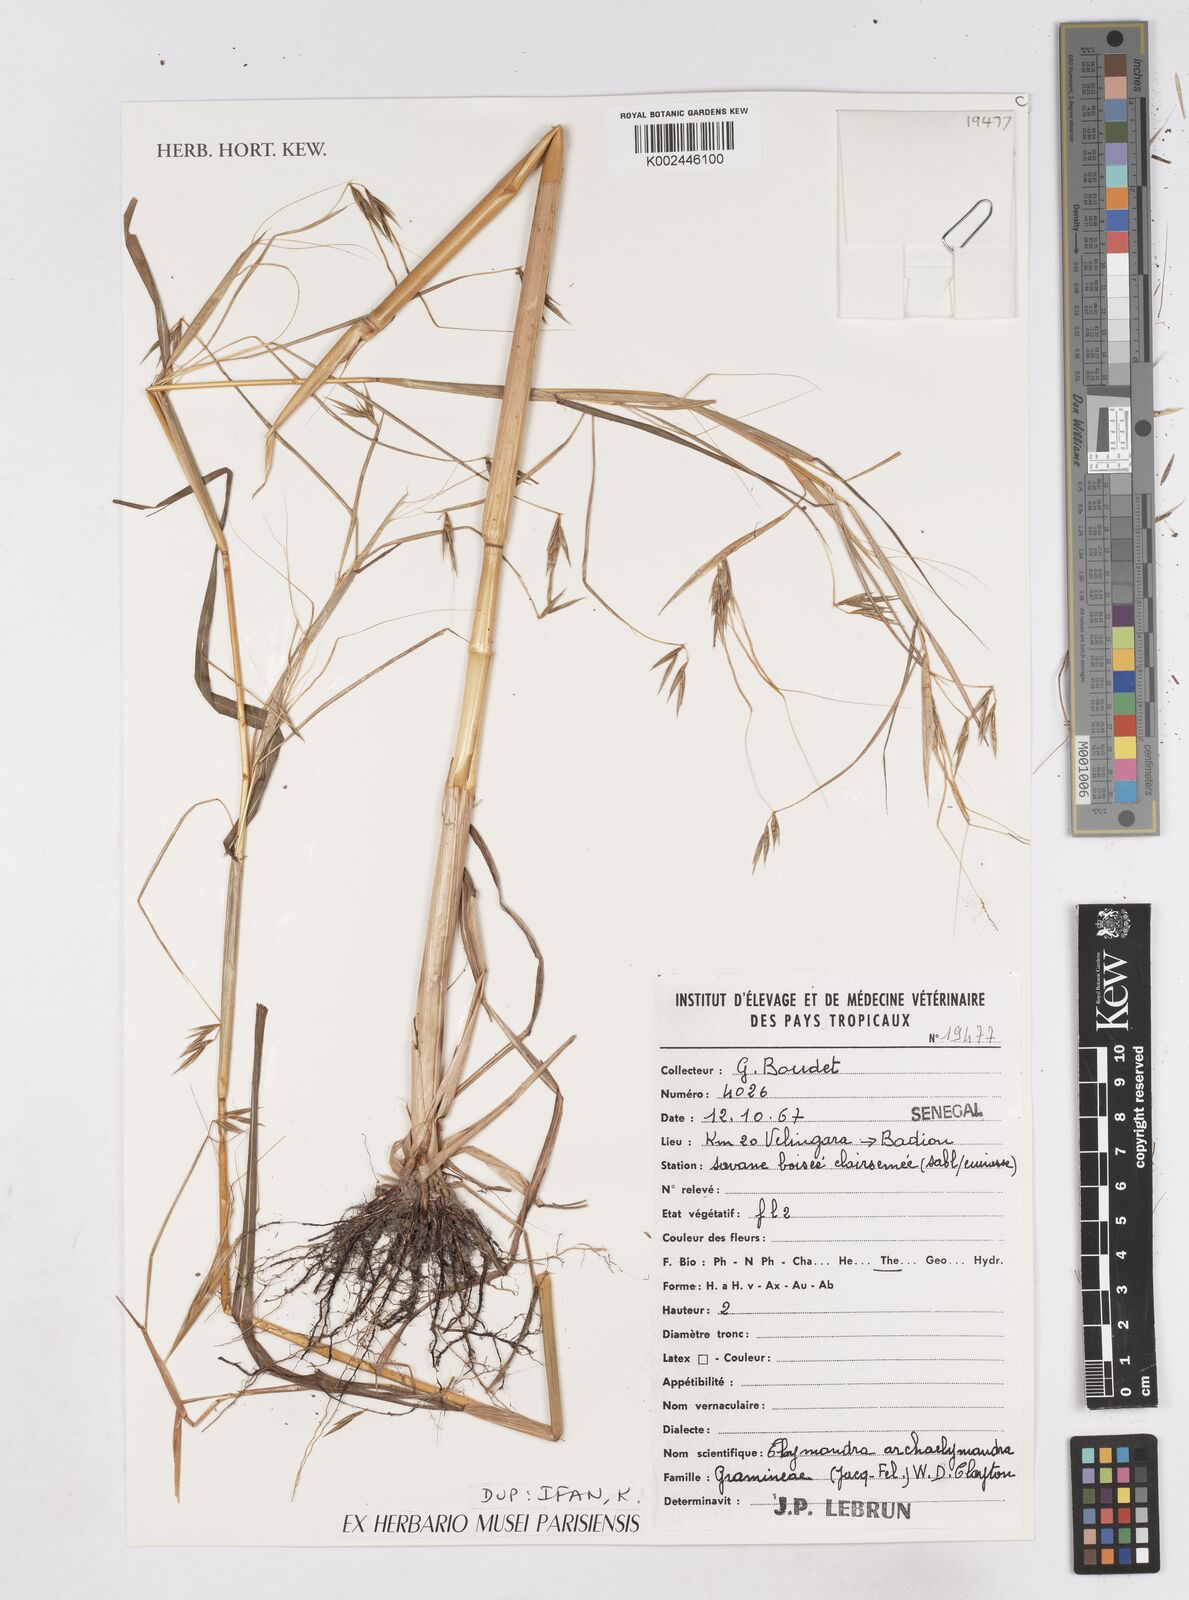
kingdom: Plantae
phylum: Tracheophyta
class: Liliopsida
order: Poales
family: Poaceae
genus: Elymandra
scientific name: Elymandra androphila
